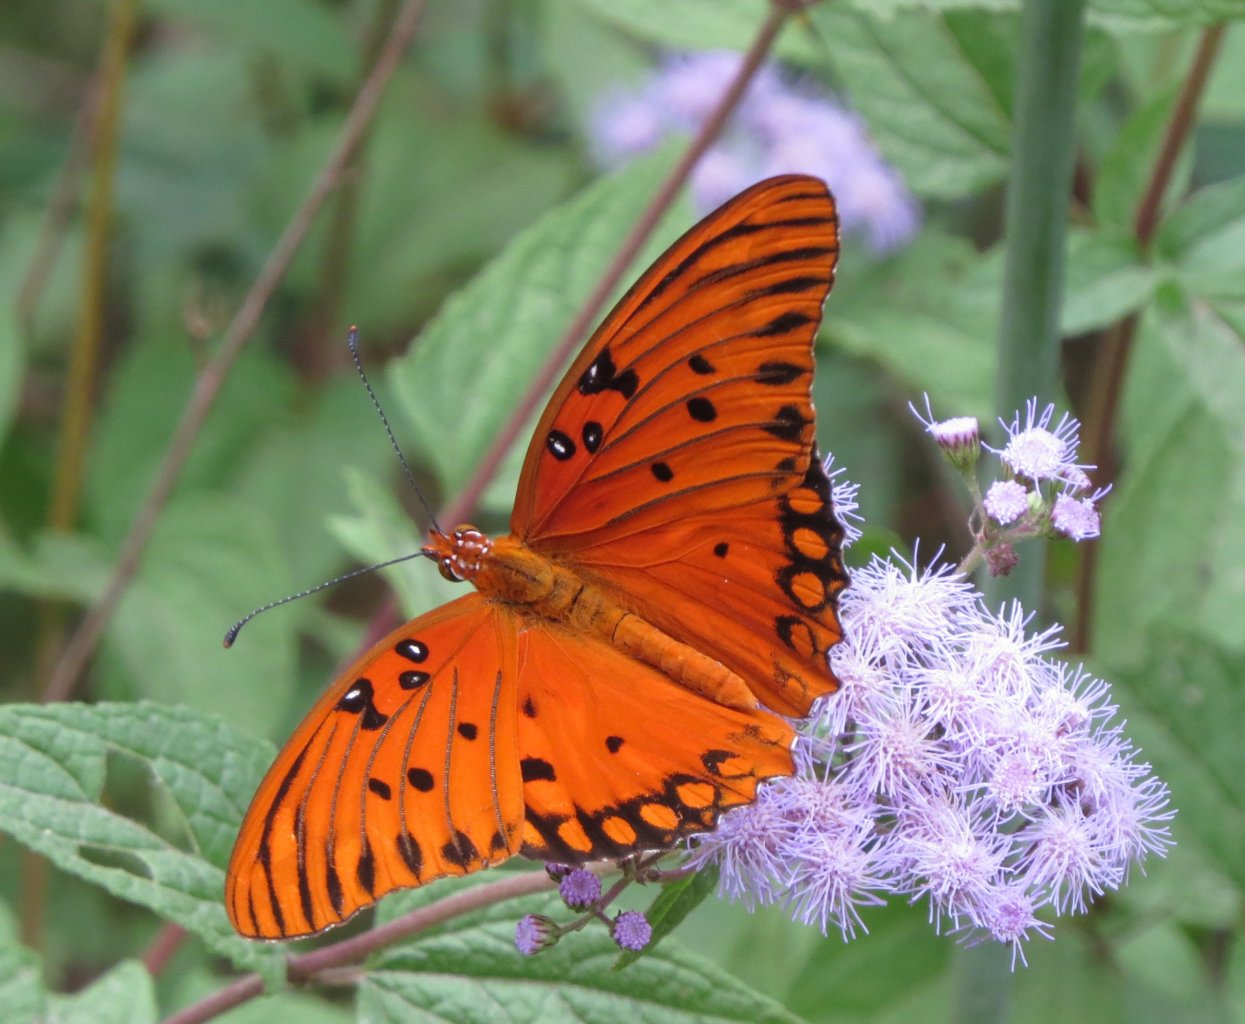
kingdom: Animalia
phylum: Arthropoda
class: Insecta
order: Lepidoptera
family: Nymphalidae
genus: Dione
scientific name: Dione vanillae
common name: Gulf Fritillary
